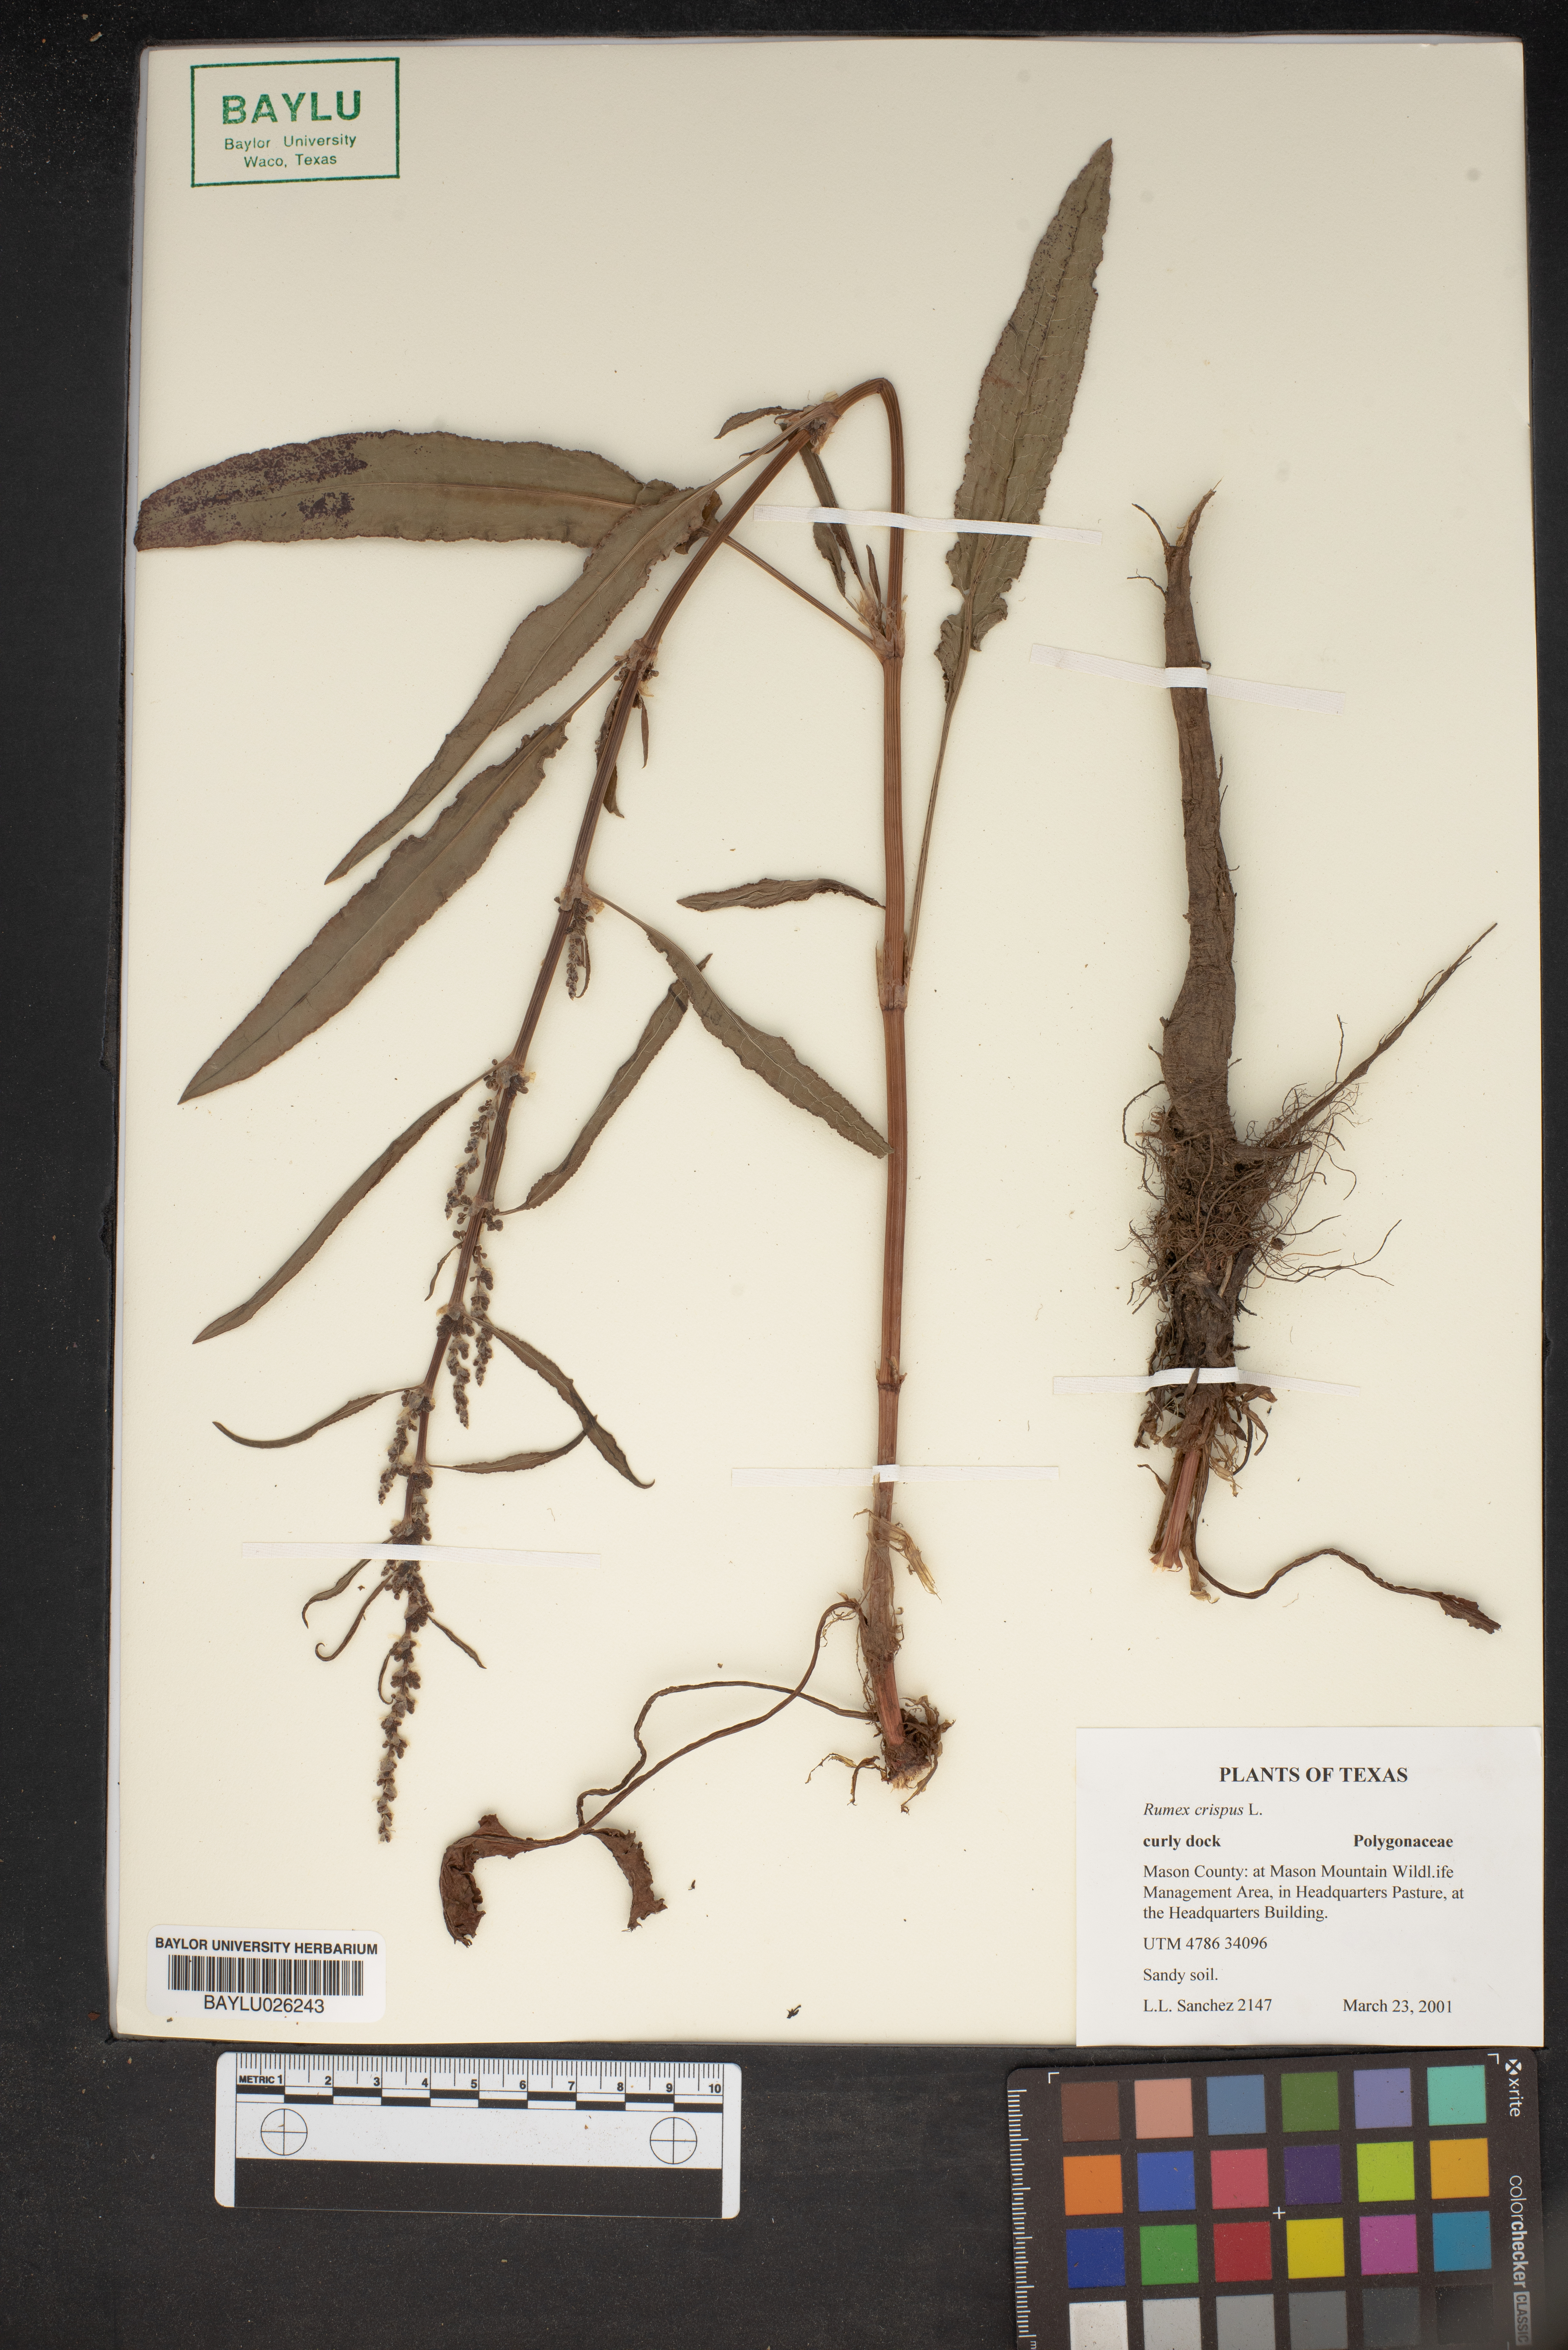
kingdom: Plantae
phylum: Tracheophyta
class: Magnoliopsida
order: Caryophyllales
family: Polygonaceae
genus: Rumex
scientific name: Rumex crispus
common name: Curled dock
